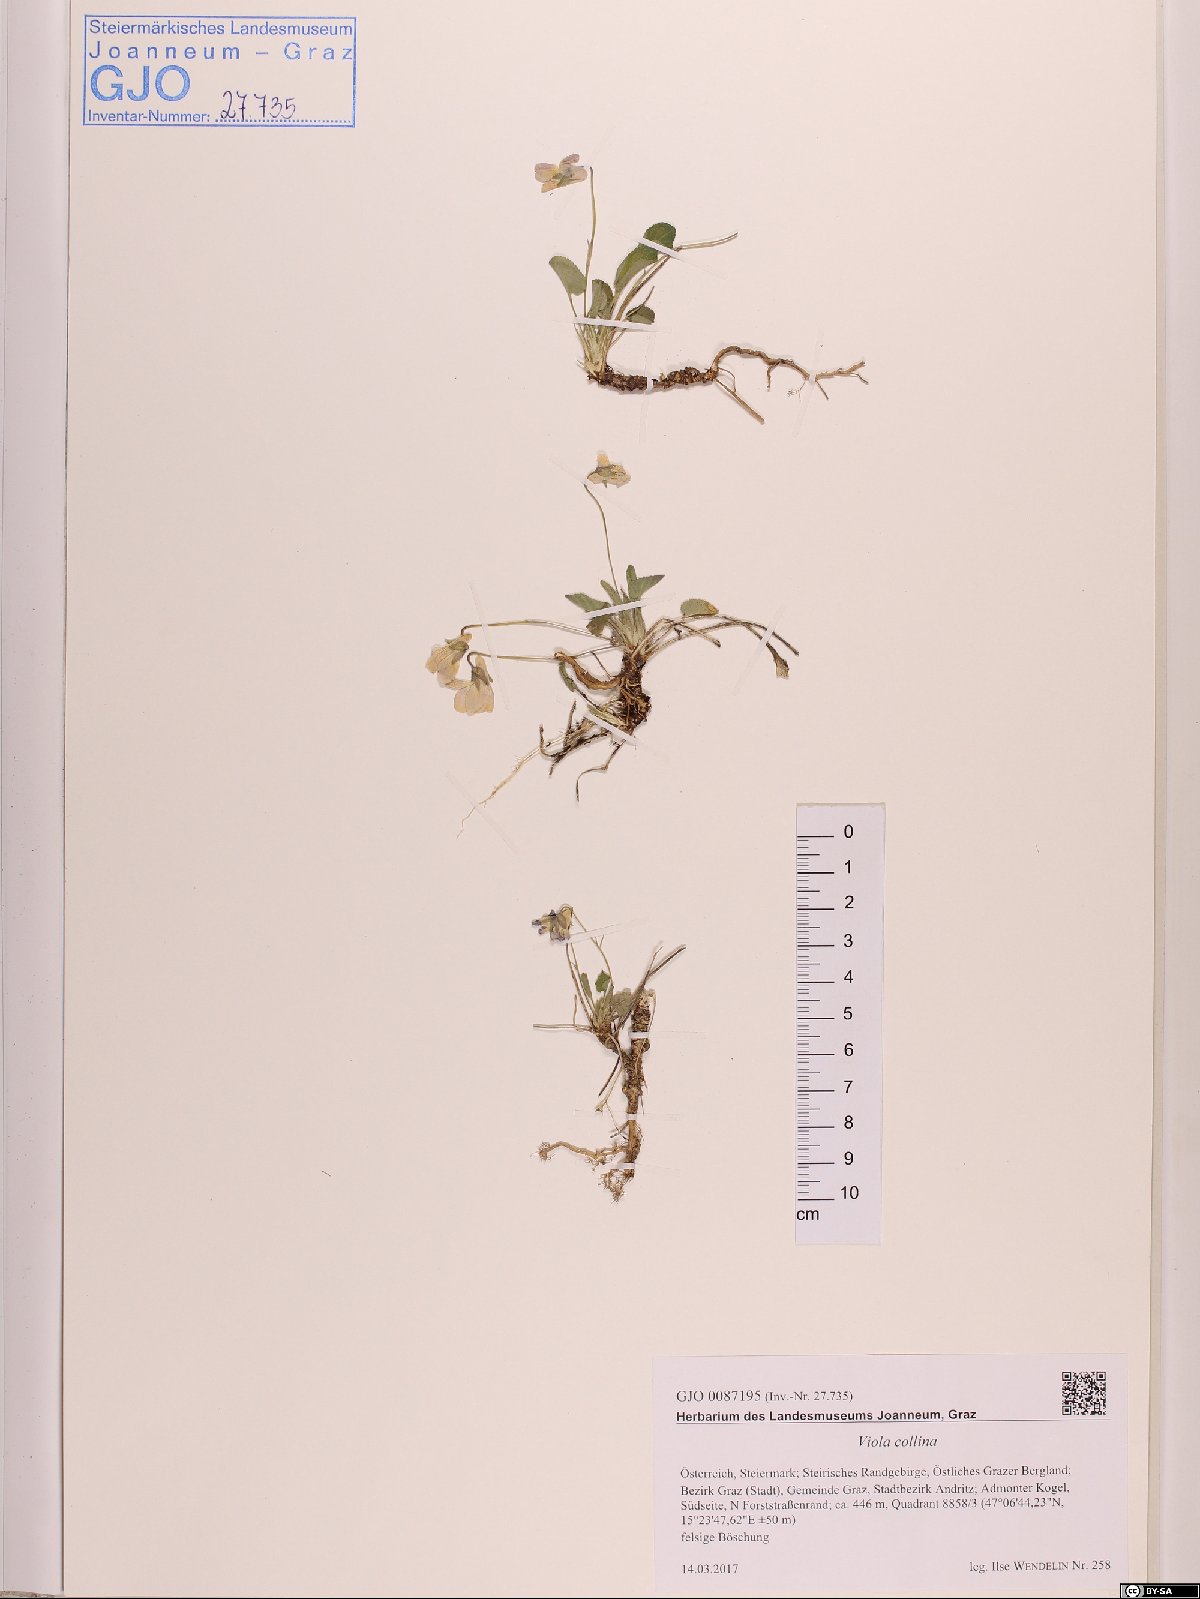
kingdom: Plantae
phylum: Tracheophyta
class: Magnoliopsida
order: Malpighiales
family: Violaceae
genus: Viola
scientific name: Viola collina
